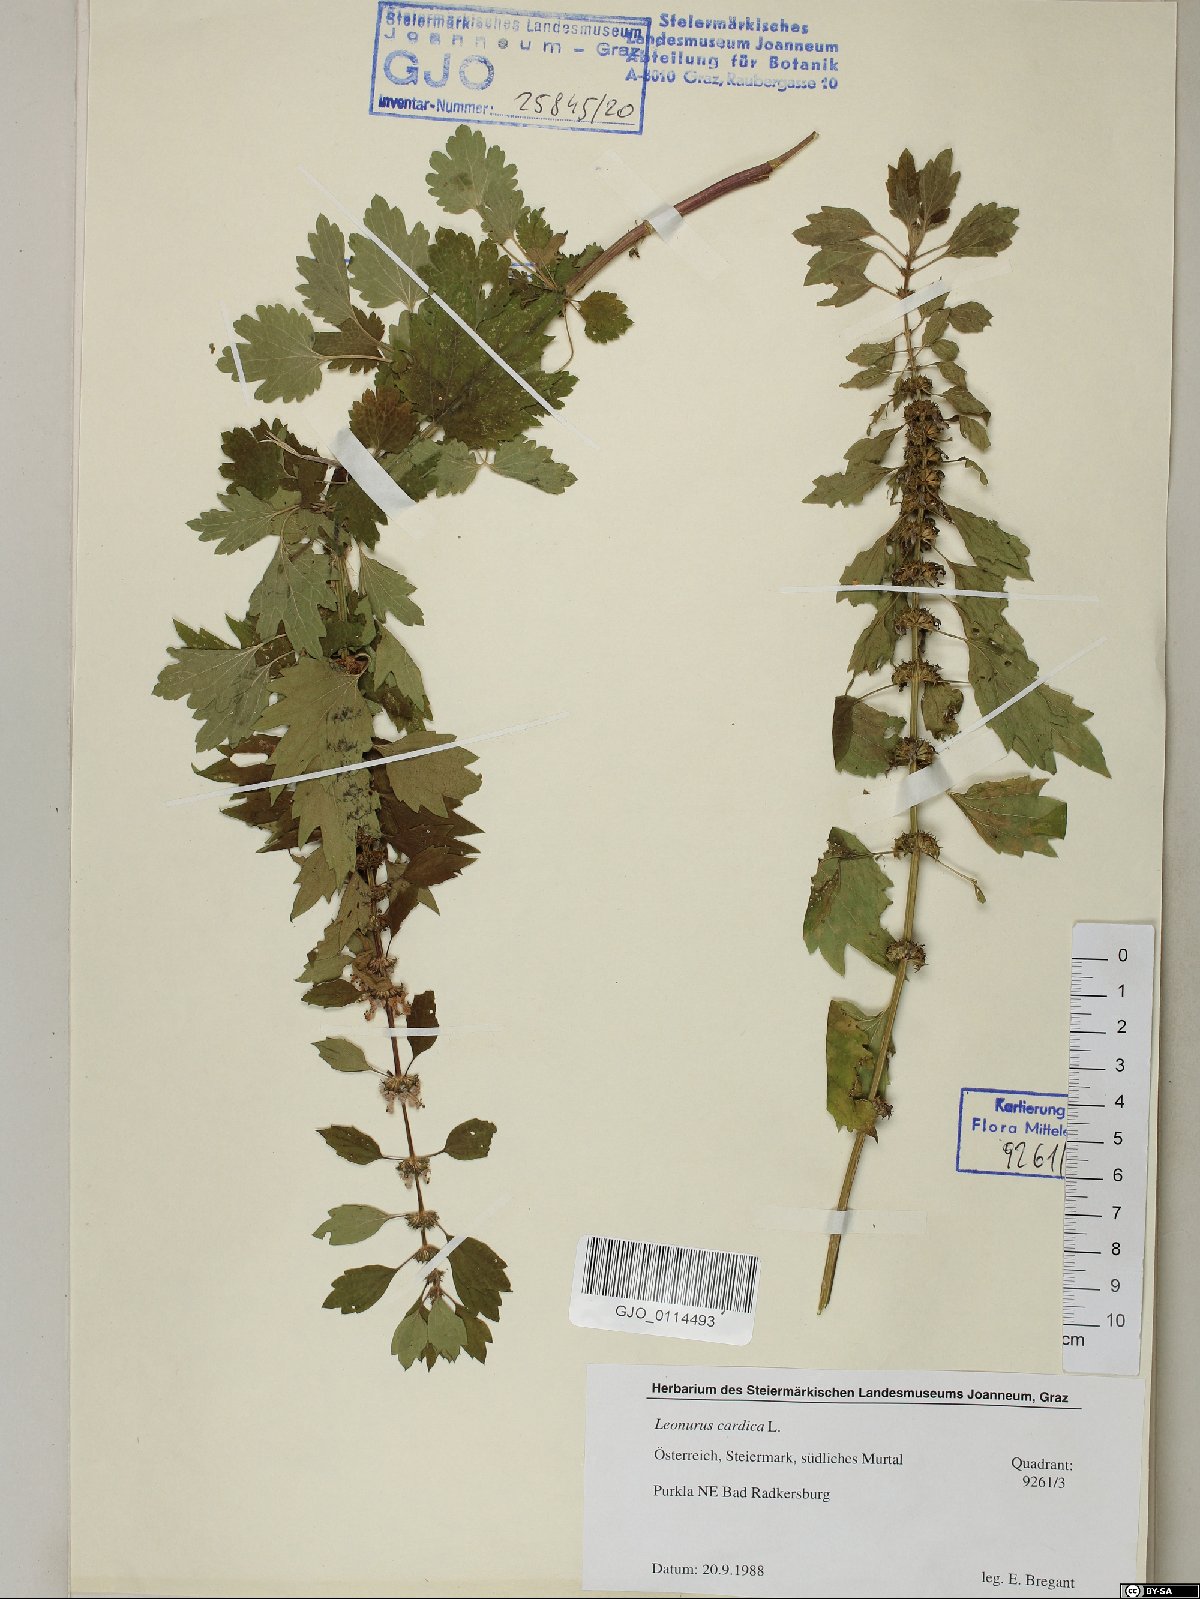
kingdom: Plantae
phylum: Tracheophyta
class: Magnoliopsida
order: Lamiales
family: Lamiaceae
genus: Leonurus
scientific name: Leonurus cardiaca
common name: Motherwort
